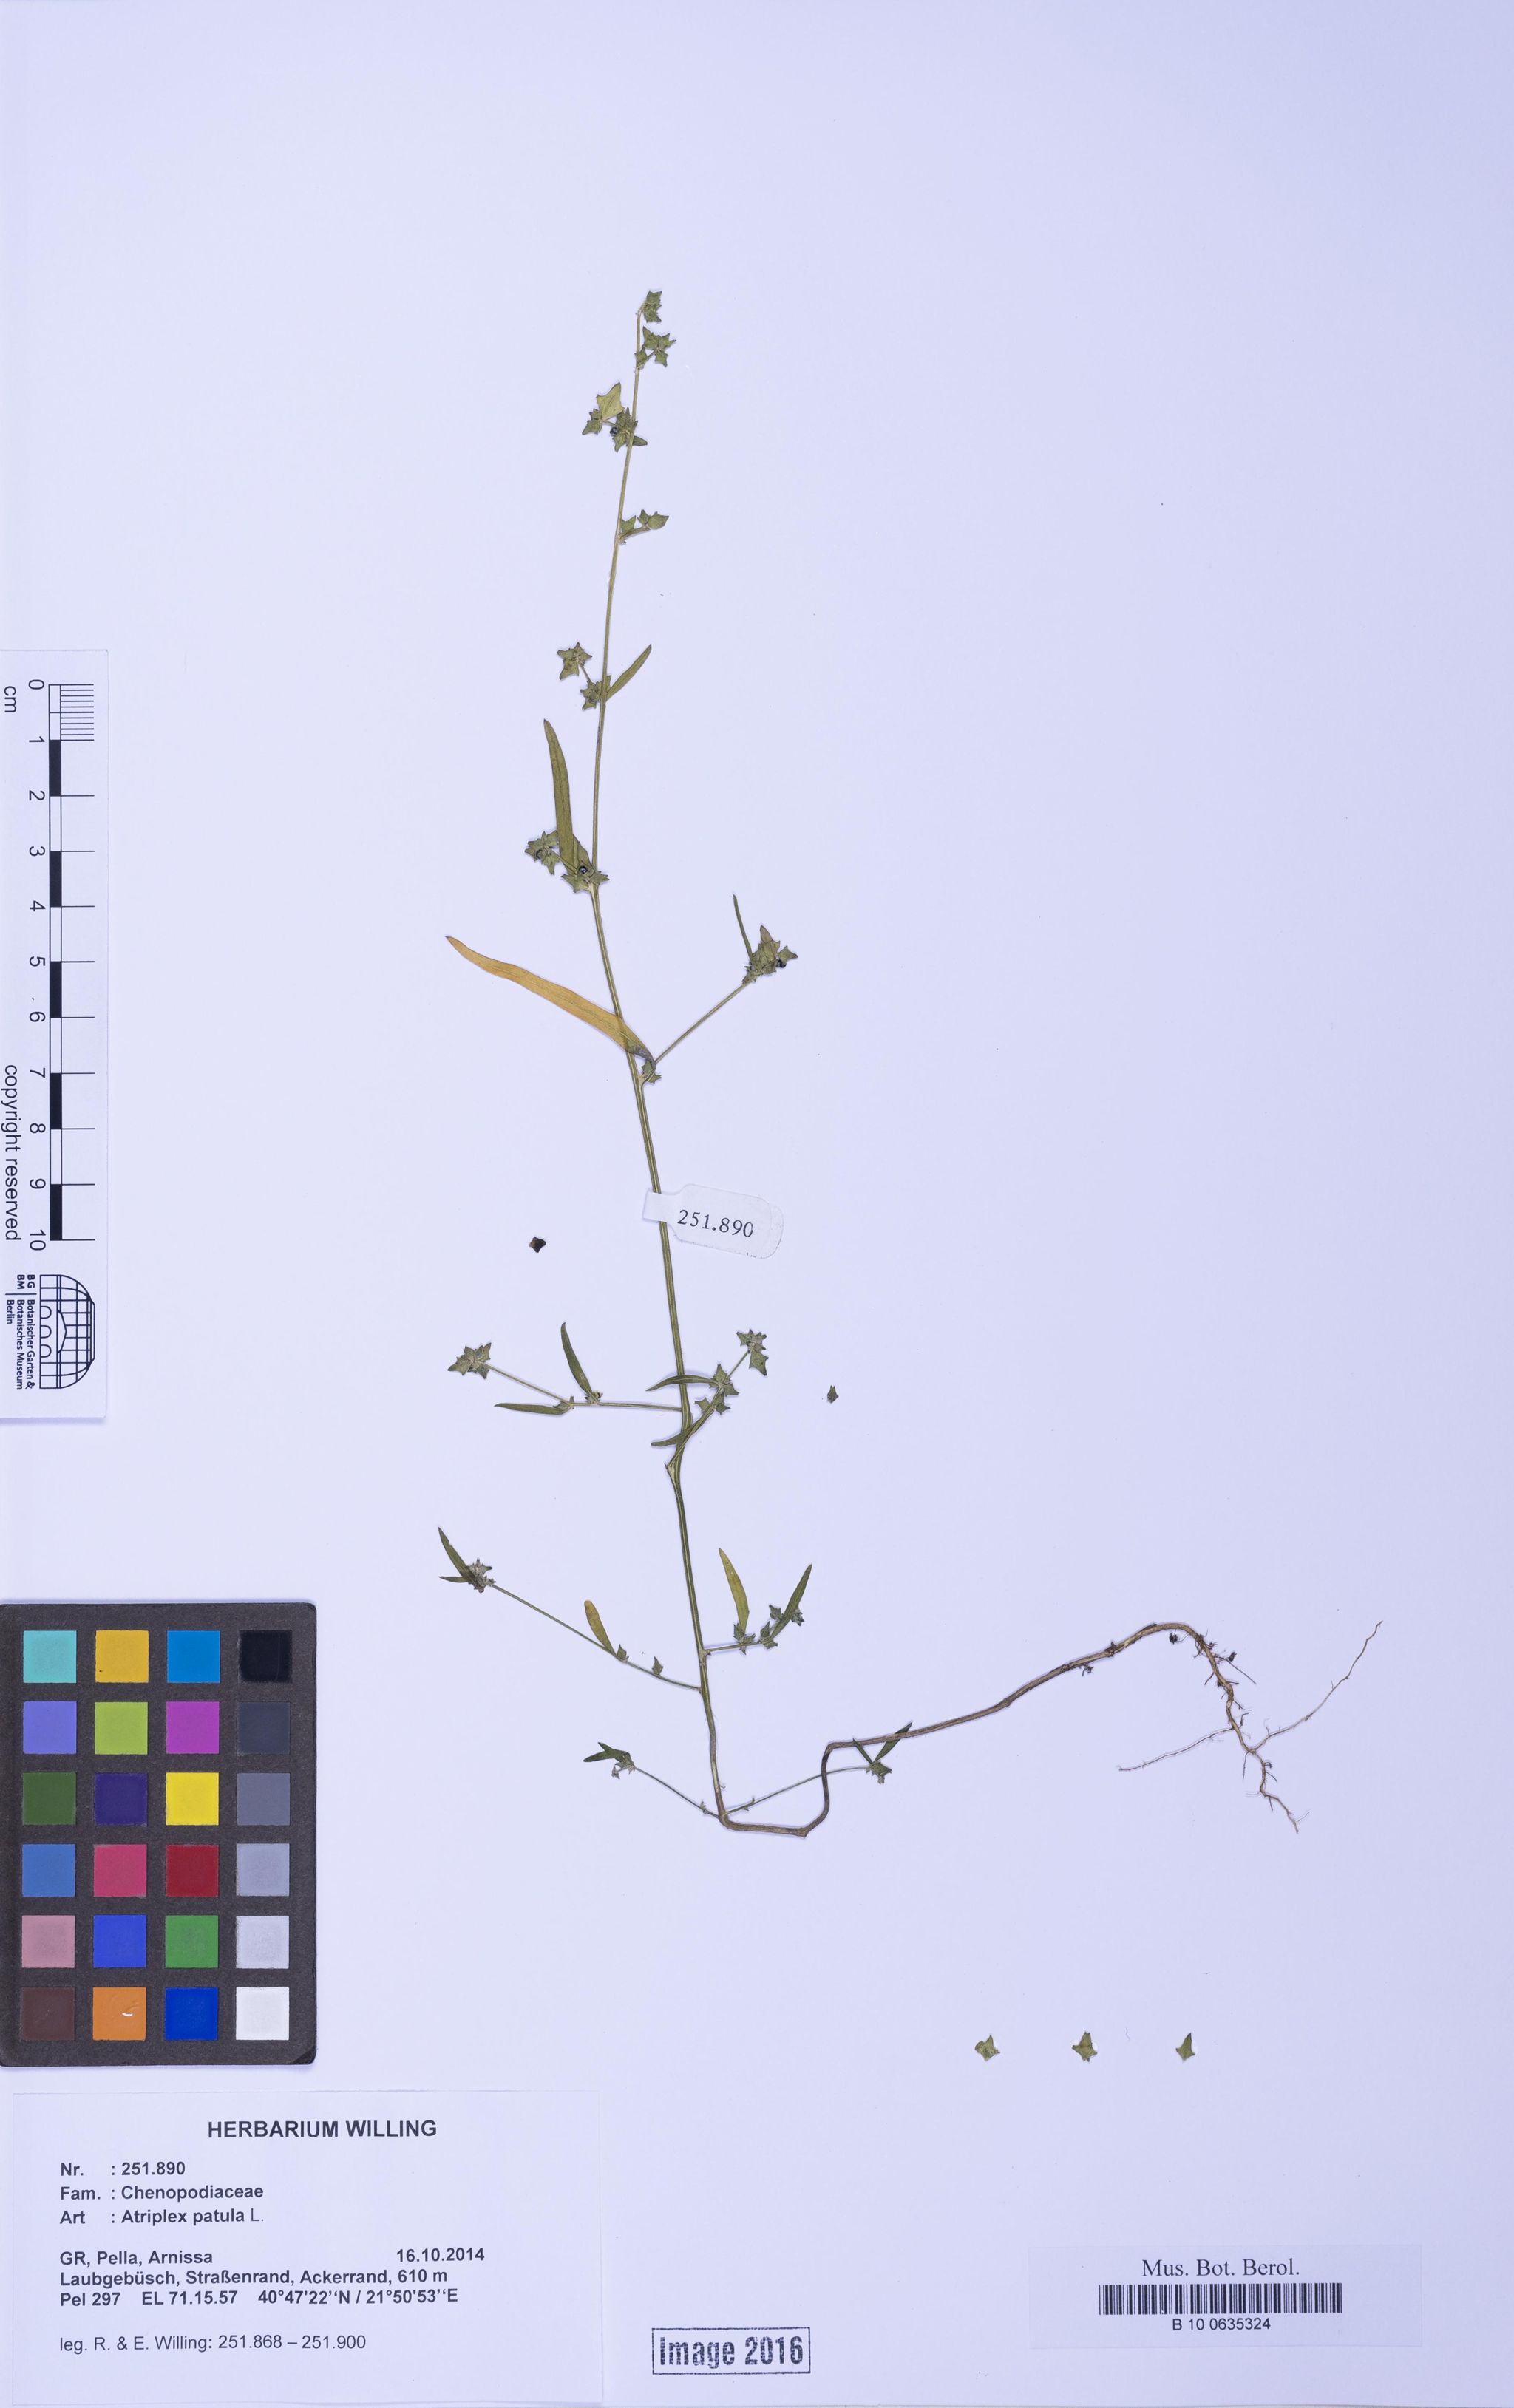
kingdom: Plantae
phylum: Tracheophyta
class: Magnoliopsida
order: Caryophyllales
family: Amaranthaceae
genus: Atriplex
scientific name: Atriplex patula
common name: Common orache
